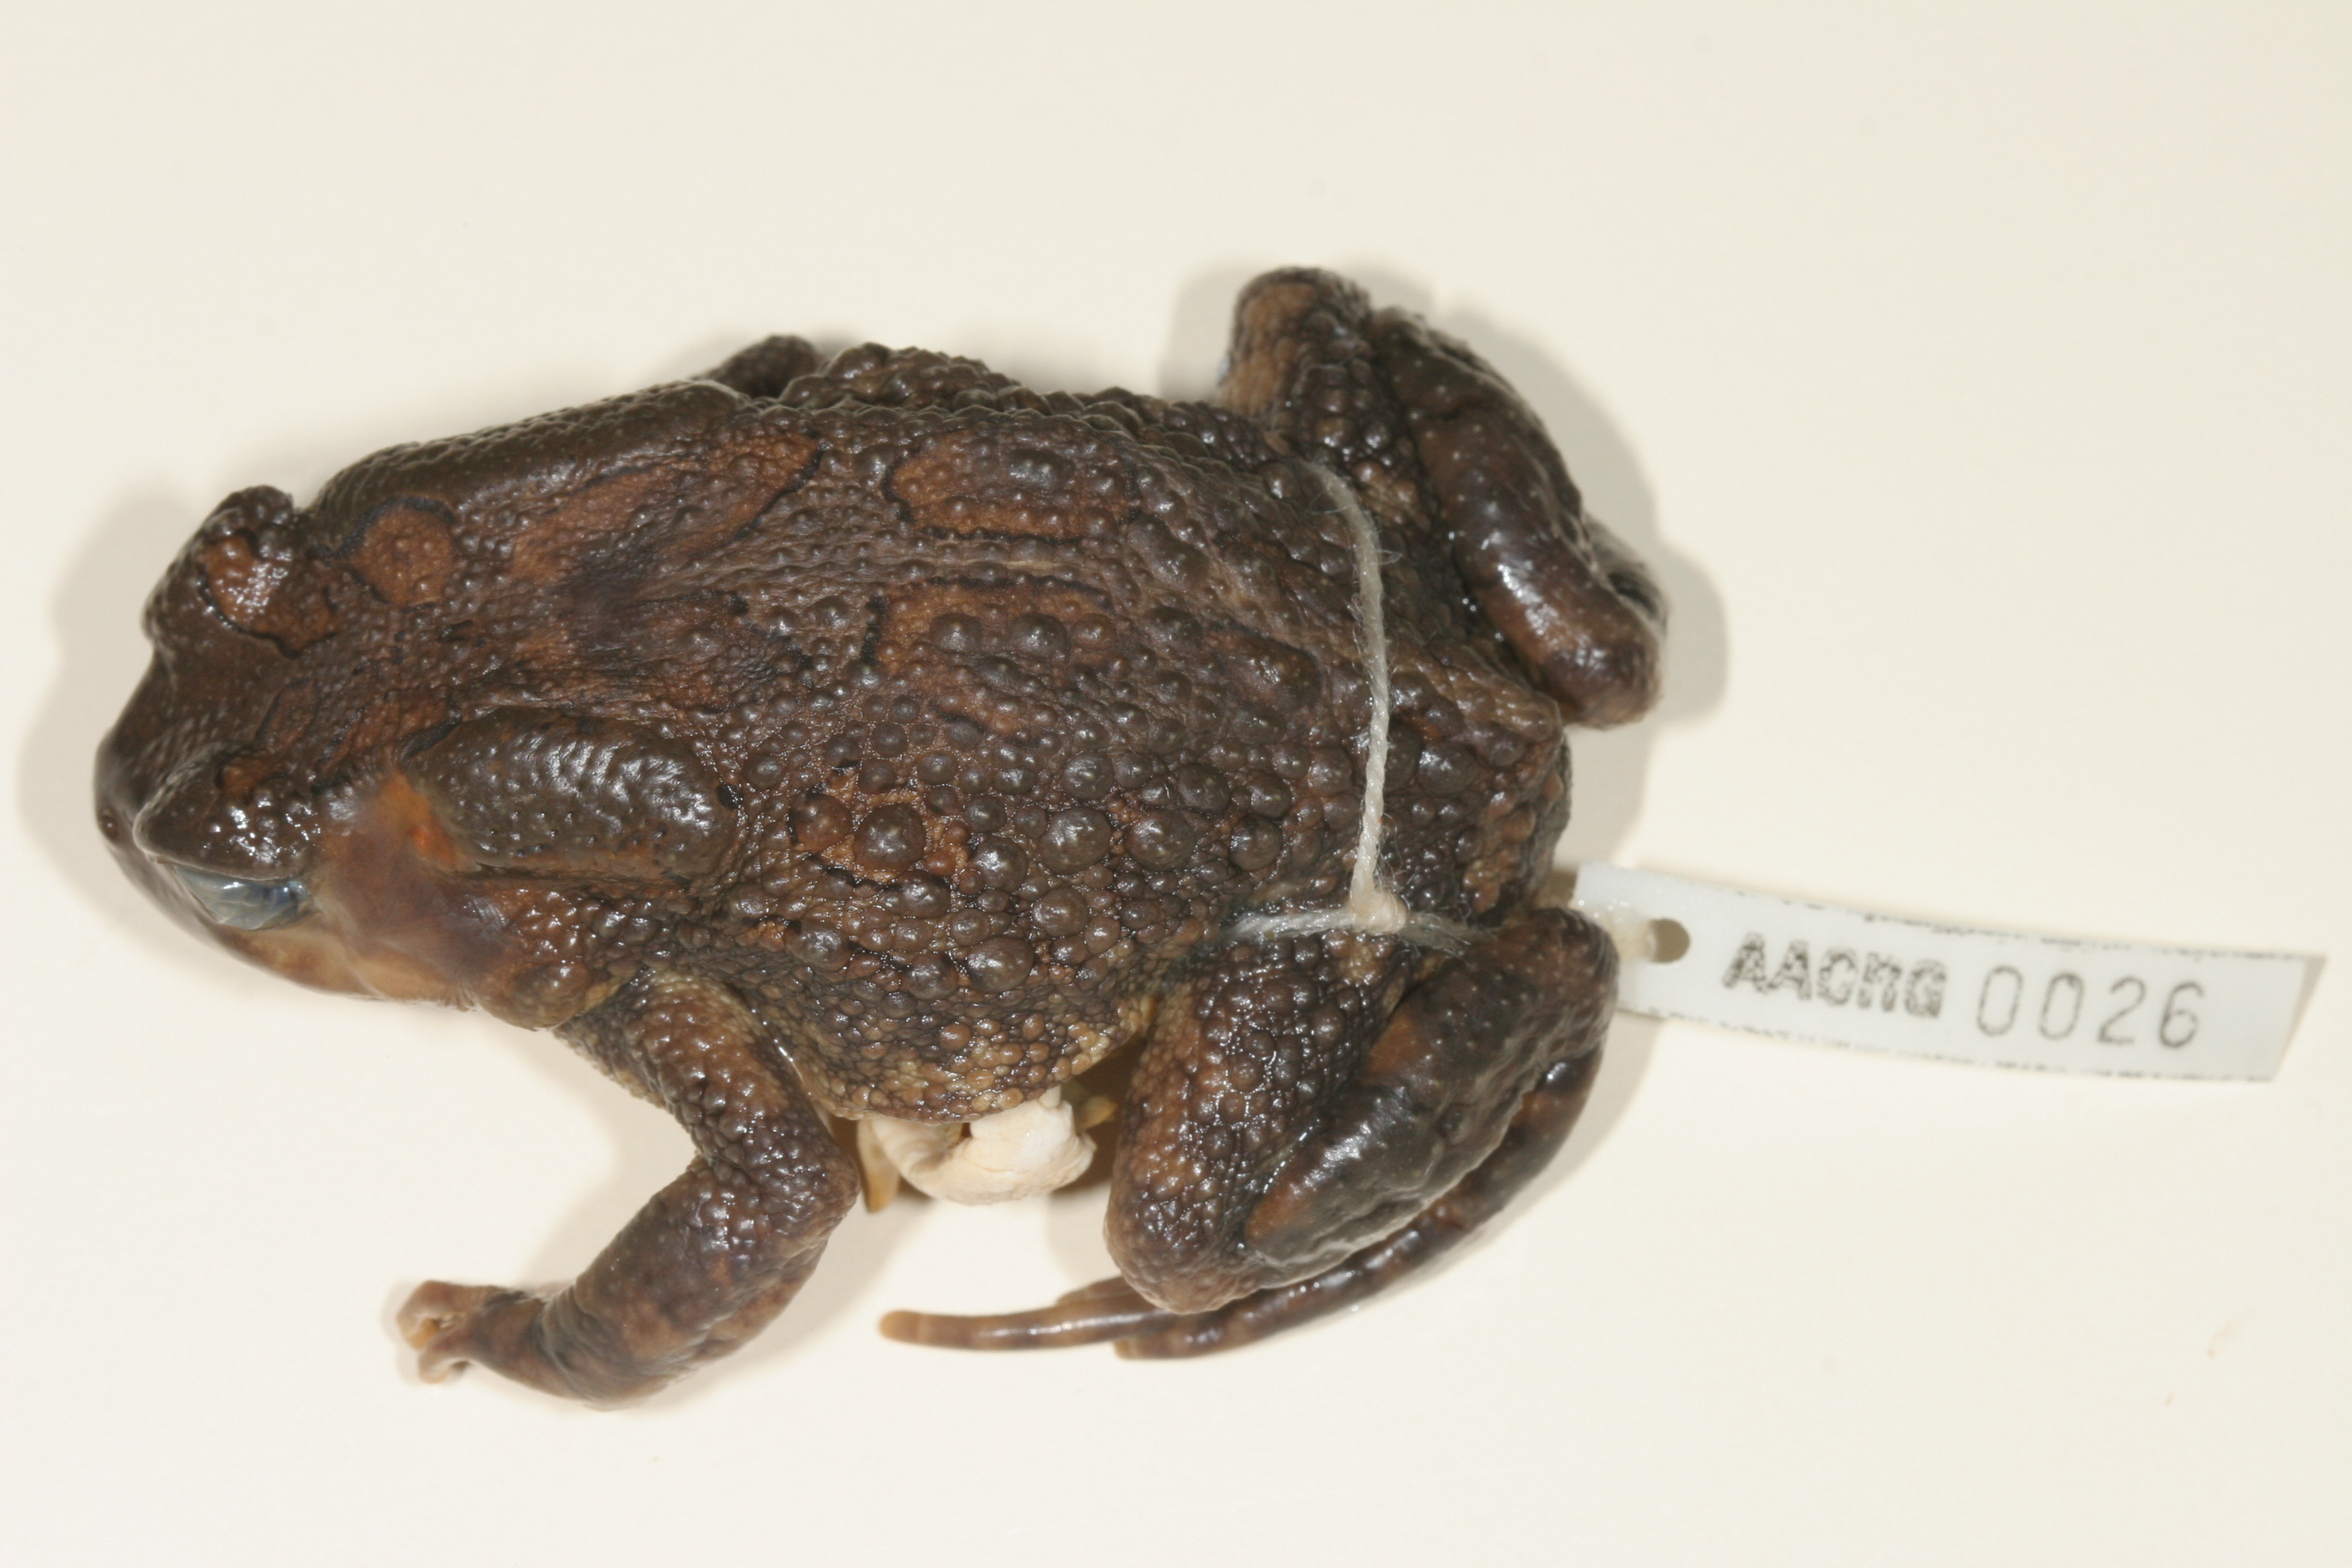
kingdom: Animalia
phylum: Chordata
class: Amphibia
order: Anura
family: Bufonidae
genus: Sclerophrys
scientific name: Sclerophrys garmani
